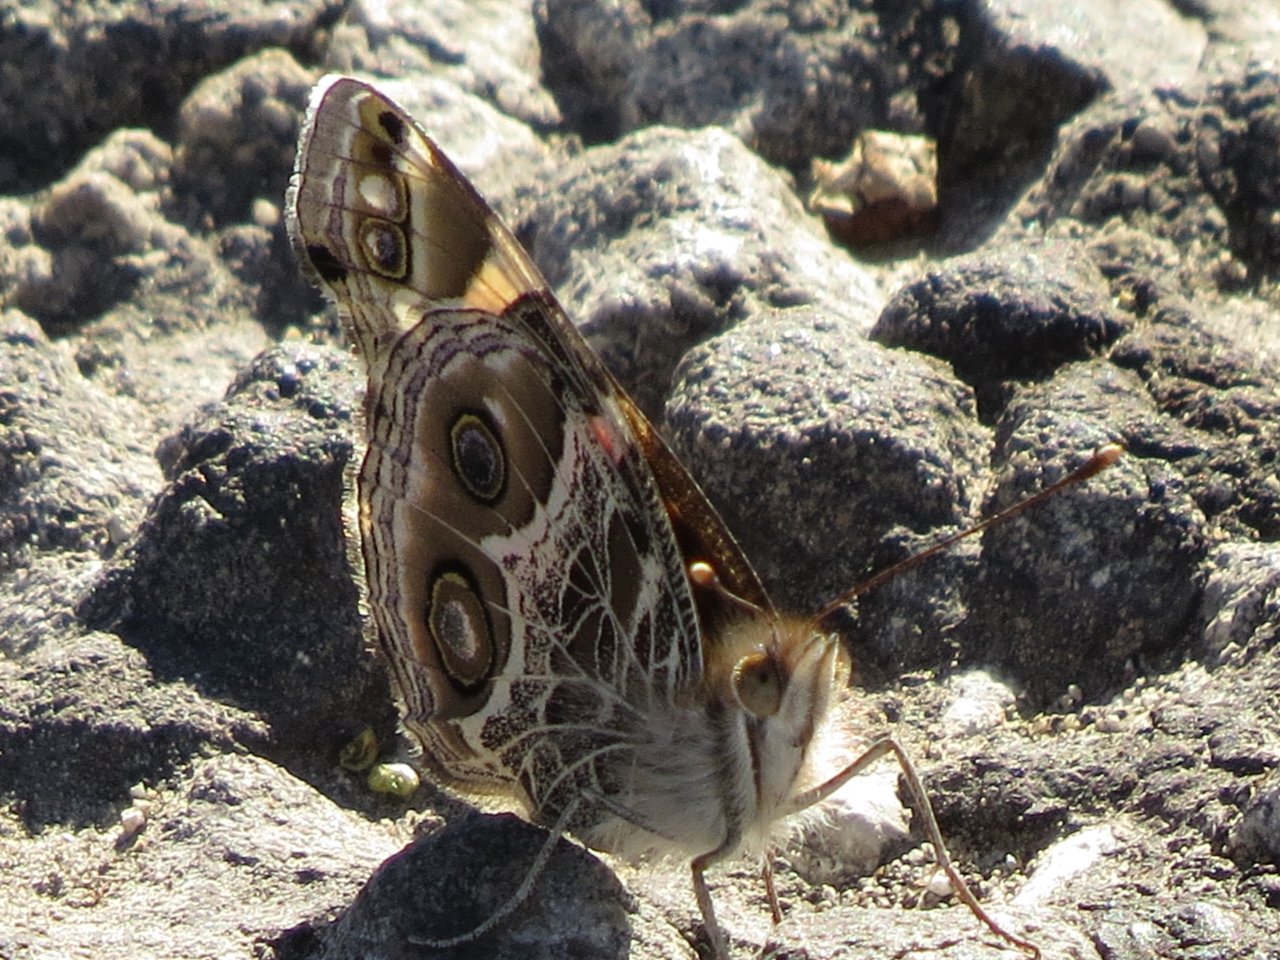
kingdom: Animalia
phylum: Arthropoda
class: Insecta
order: Lepidoptera
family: Nymphalidae
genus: Vanessa
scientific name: Vanessa virginiensis
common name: American Lady
